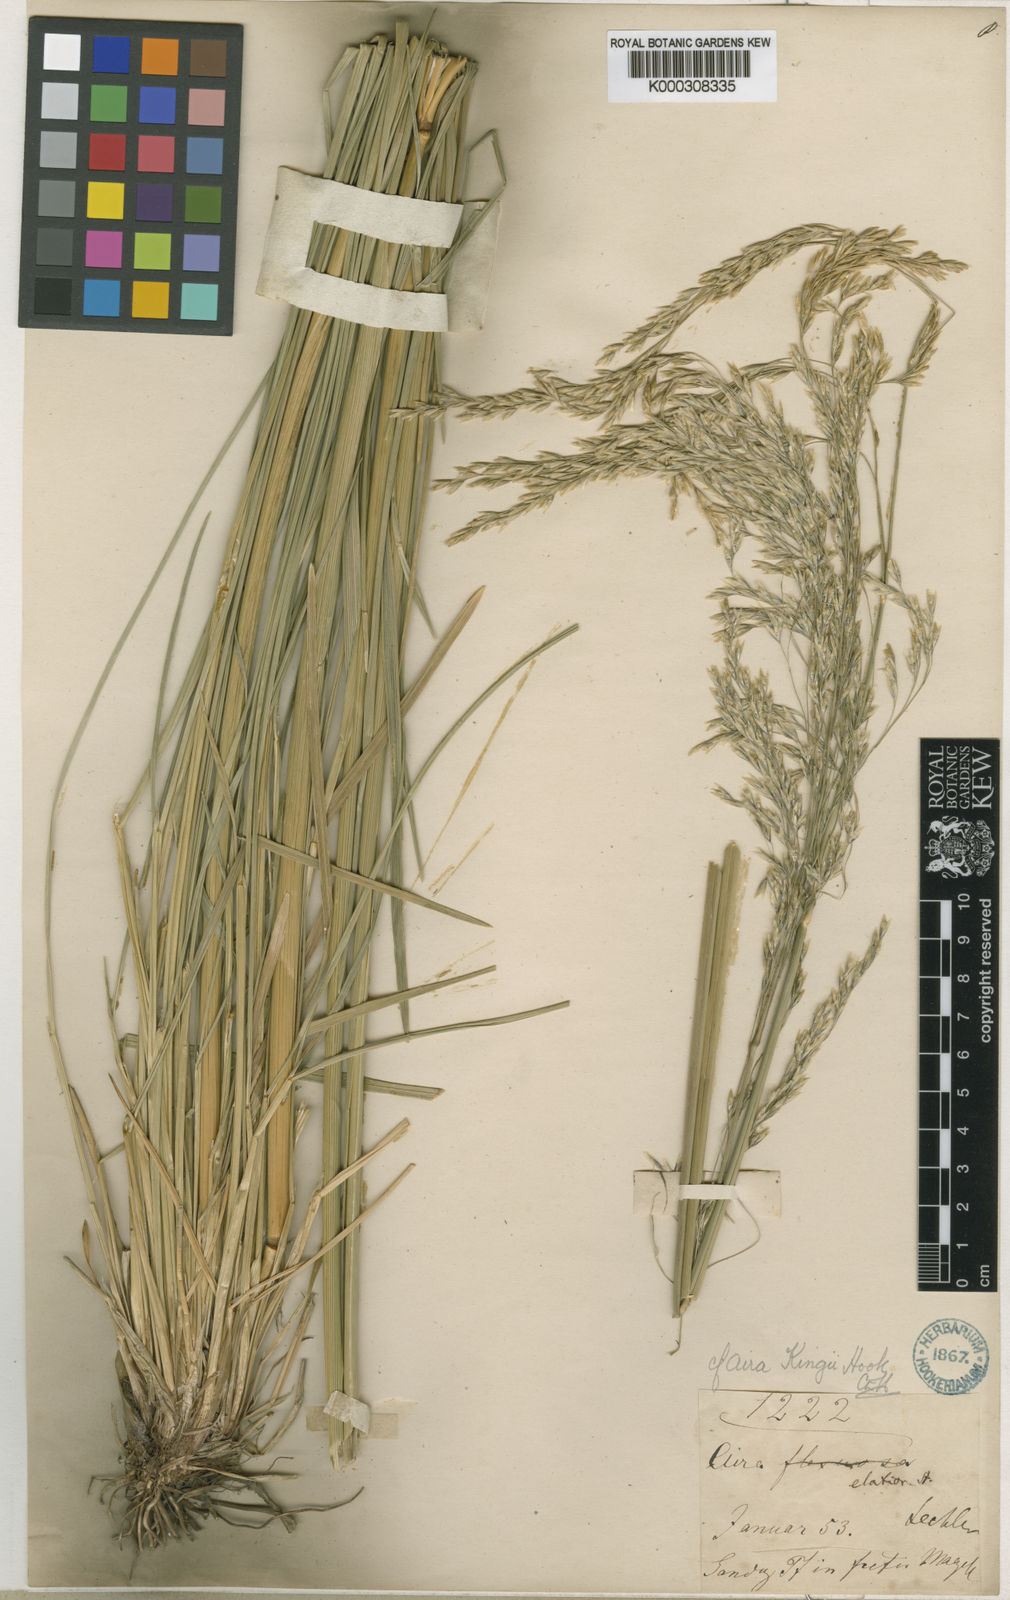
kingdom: Plantae
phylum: Tracheophyta
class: Liliopsida
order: Poales
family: Poaceae
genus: Deschampsia
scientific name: Deschampsia kingii
